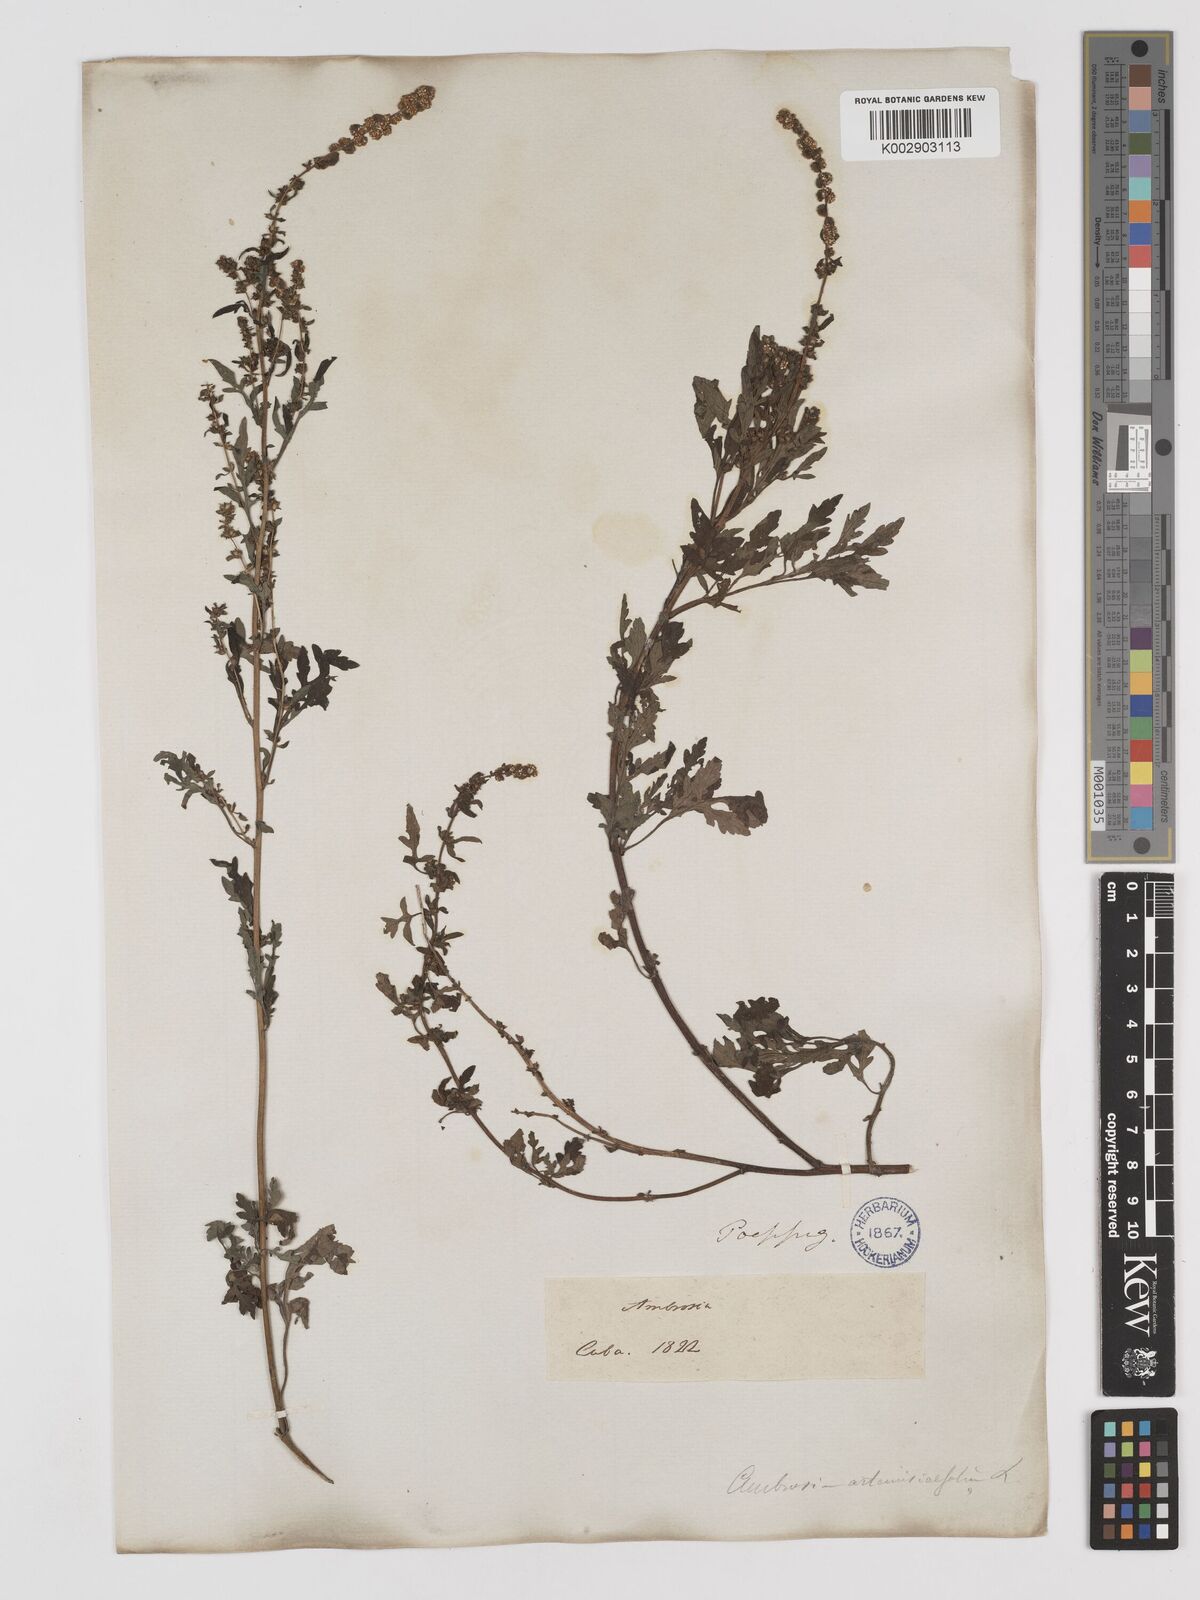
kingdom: Plantae
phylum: Tracheophyta
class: Magnoliopsida
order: Asterales
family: Asteraceae
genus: Ambrosia
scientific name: Ambrosia artemisiifolia
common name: Annual ragweed
